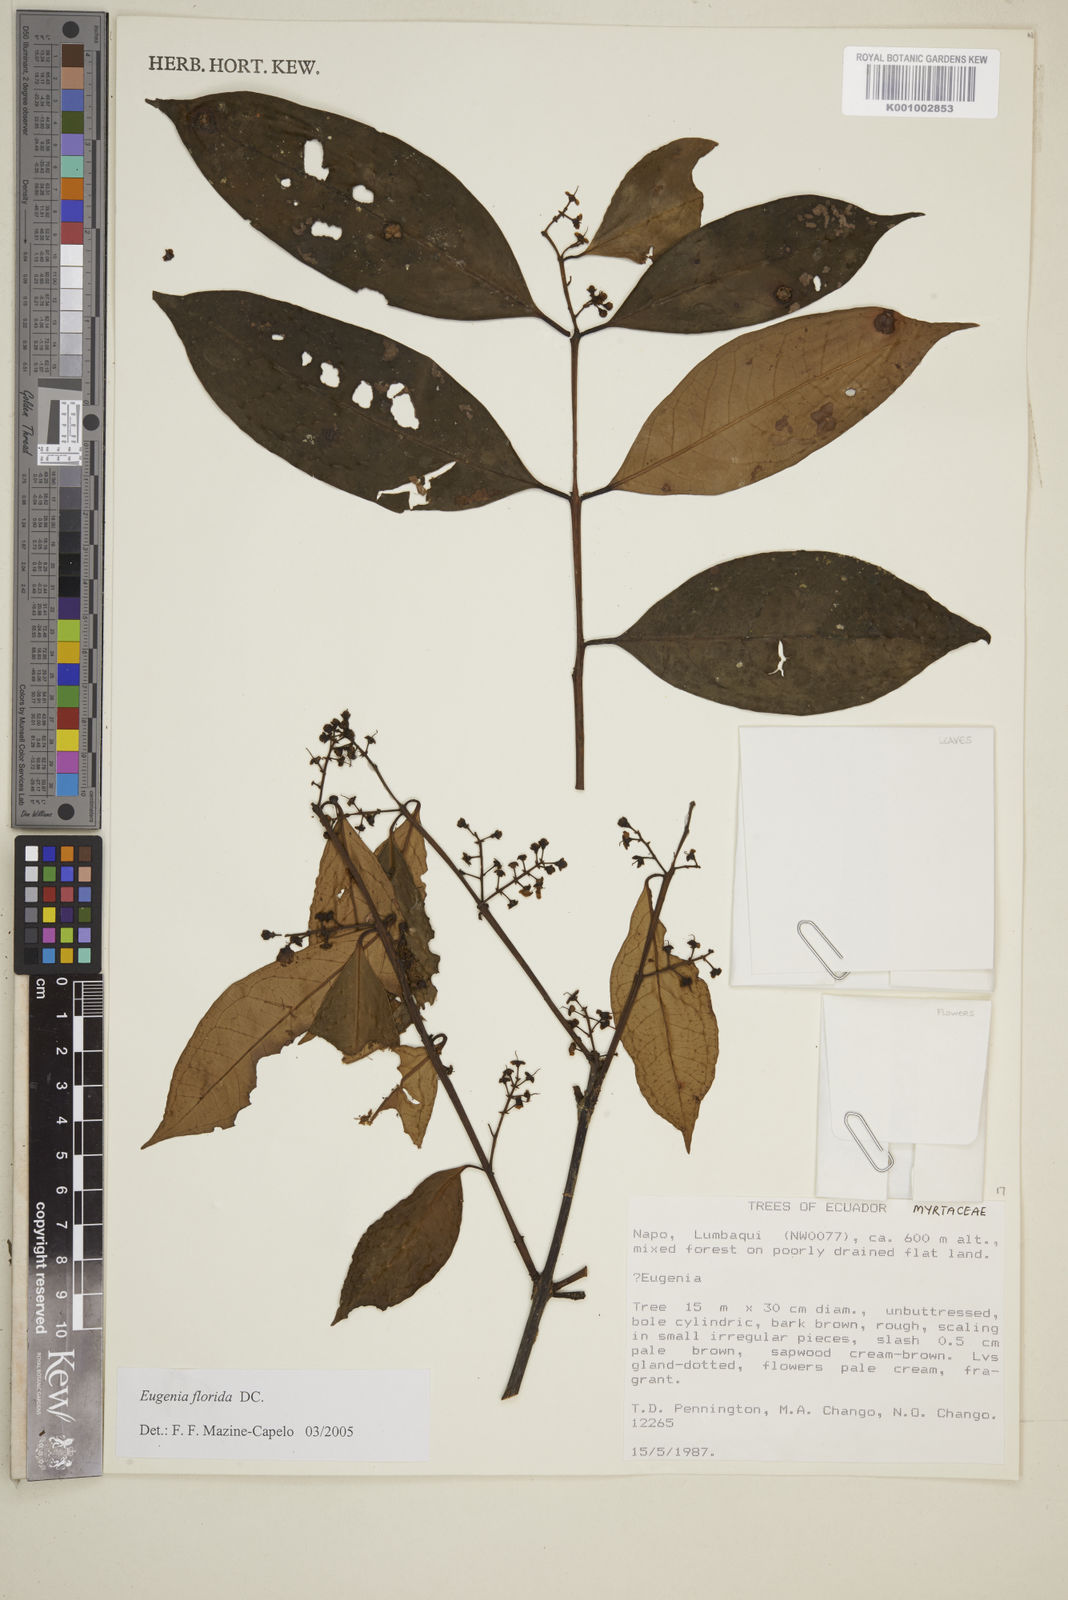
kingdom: Plantae
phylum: Tracheophyta
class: Magnoliopsida
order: Myrtales
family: Myrtaceae
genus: Eugenia
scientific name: Eugenia florida
